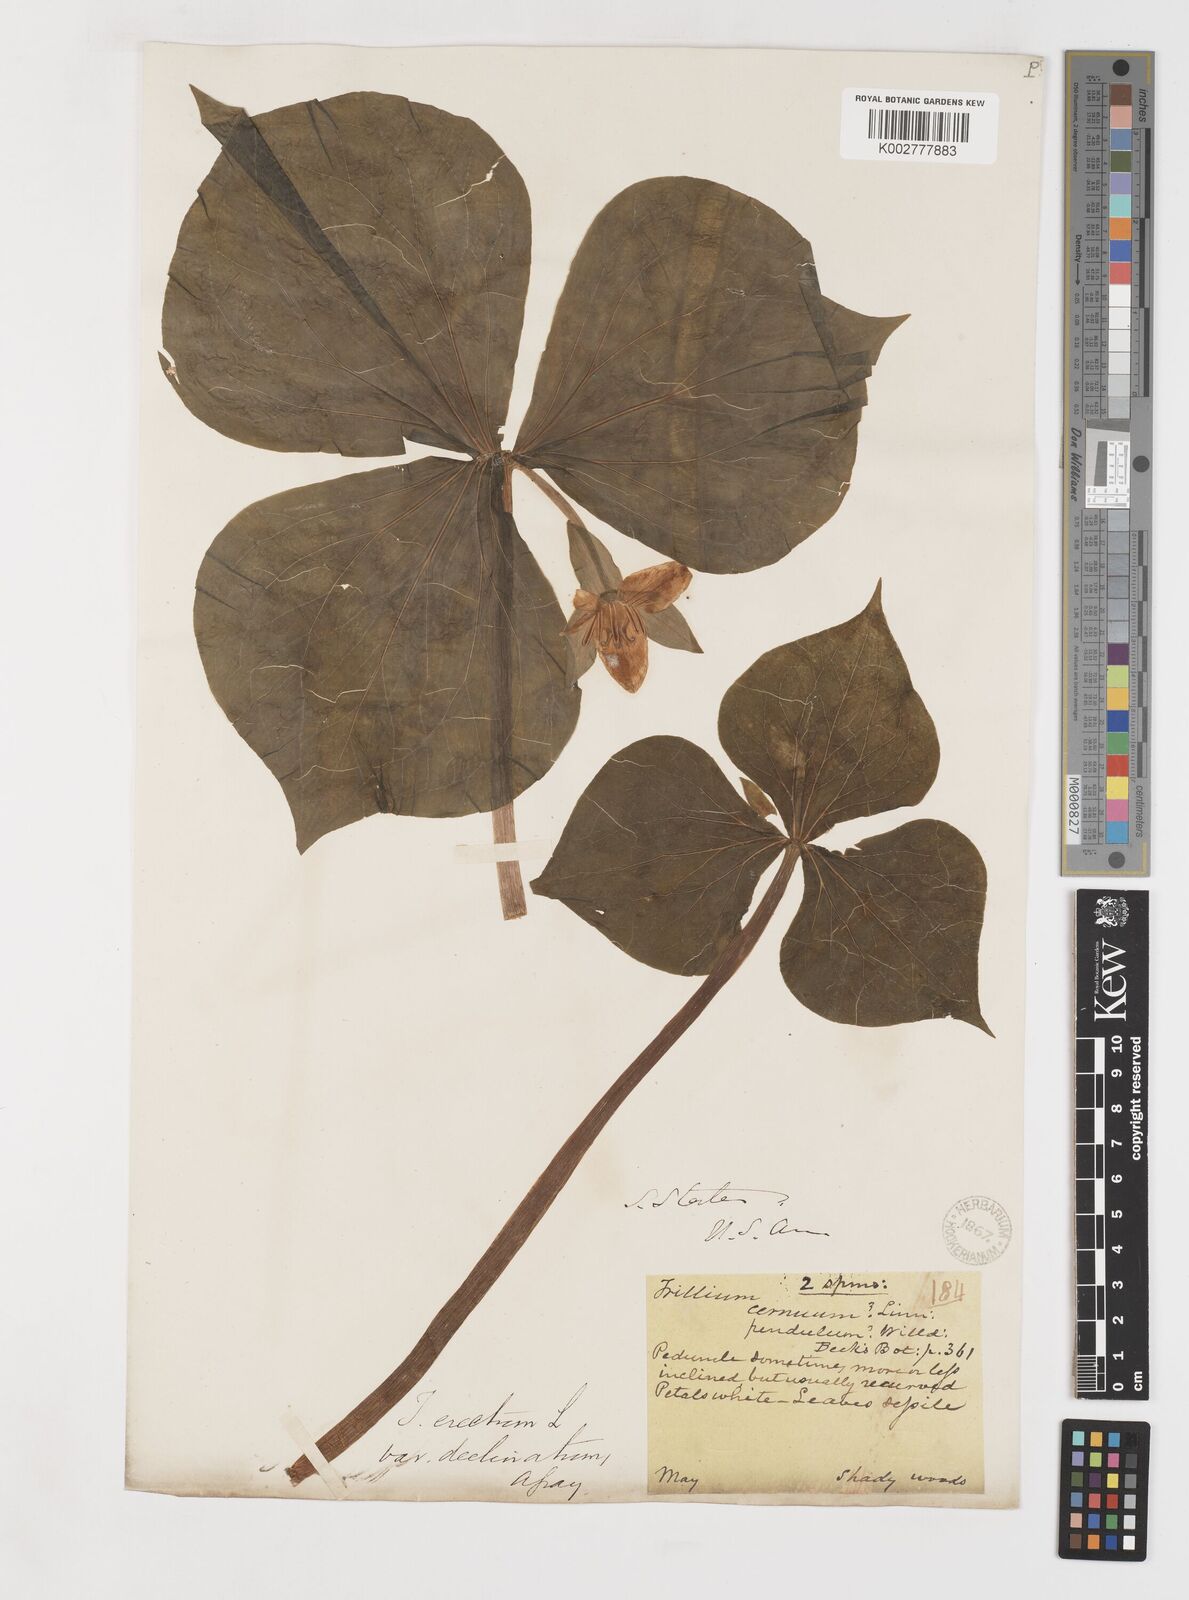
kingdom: Plantae
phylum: Tracheophyta
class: Liliopsida
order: Liliales
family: Melanthiaceae
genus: Trillium
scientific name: Trillium erectum
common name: Purple trillium
